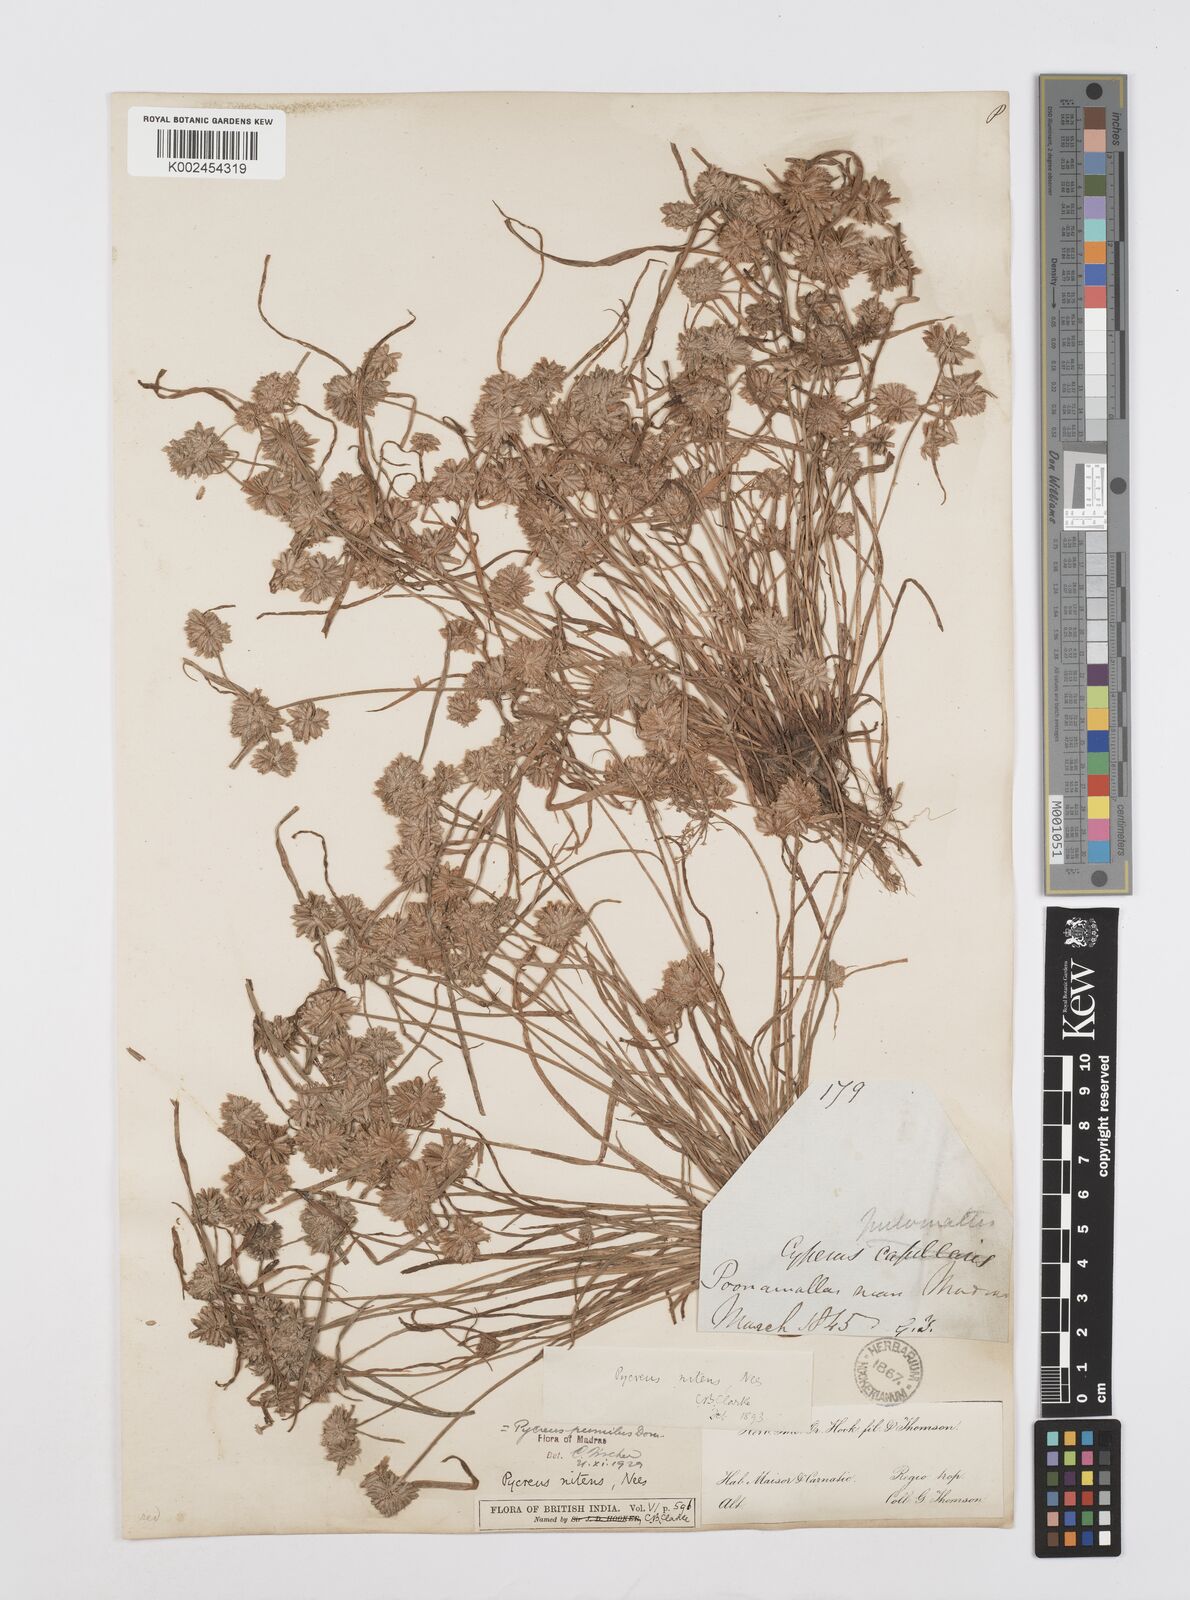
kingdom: Plantae
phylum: Tracheophyta
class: Liliopsida
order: Poales
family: Cyperaceae
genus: Cyperus
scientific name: Cyperus pumilus
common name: Low flatsedge
